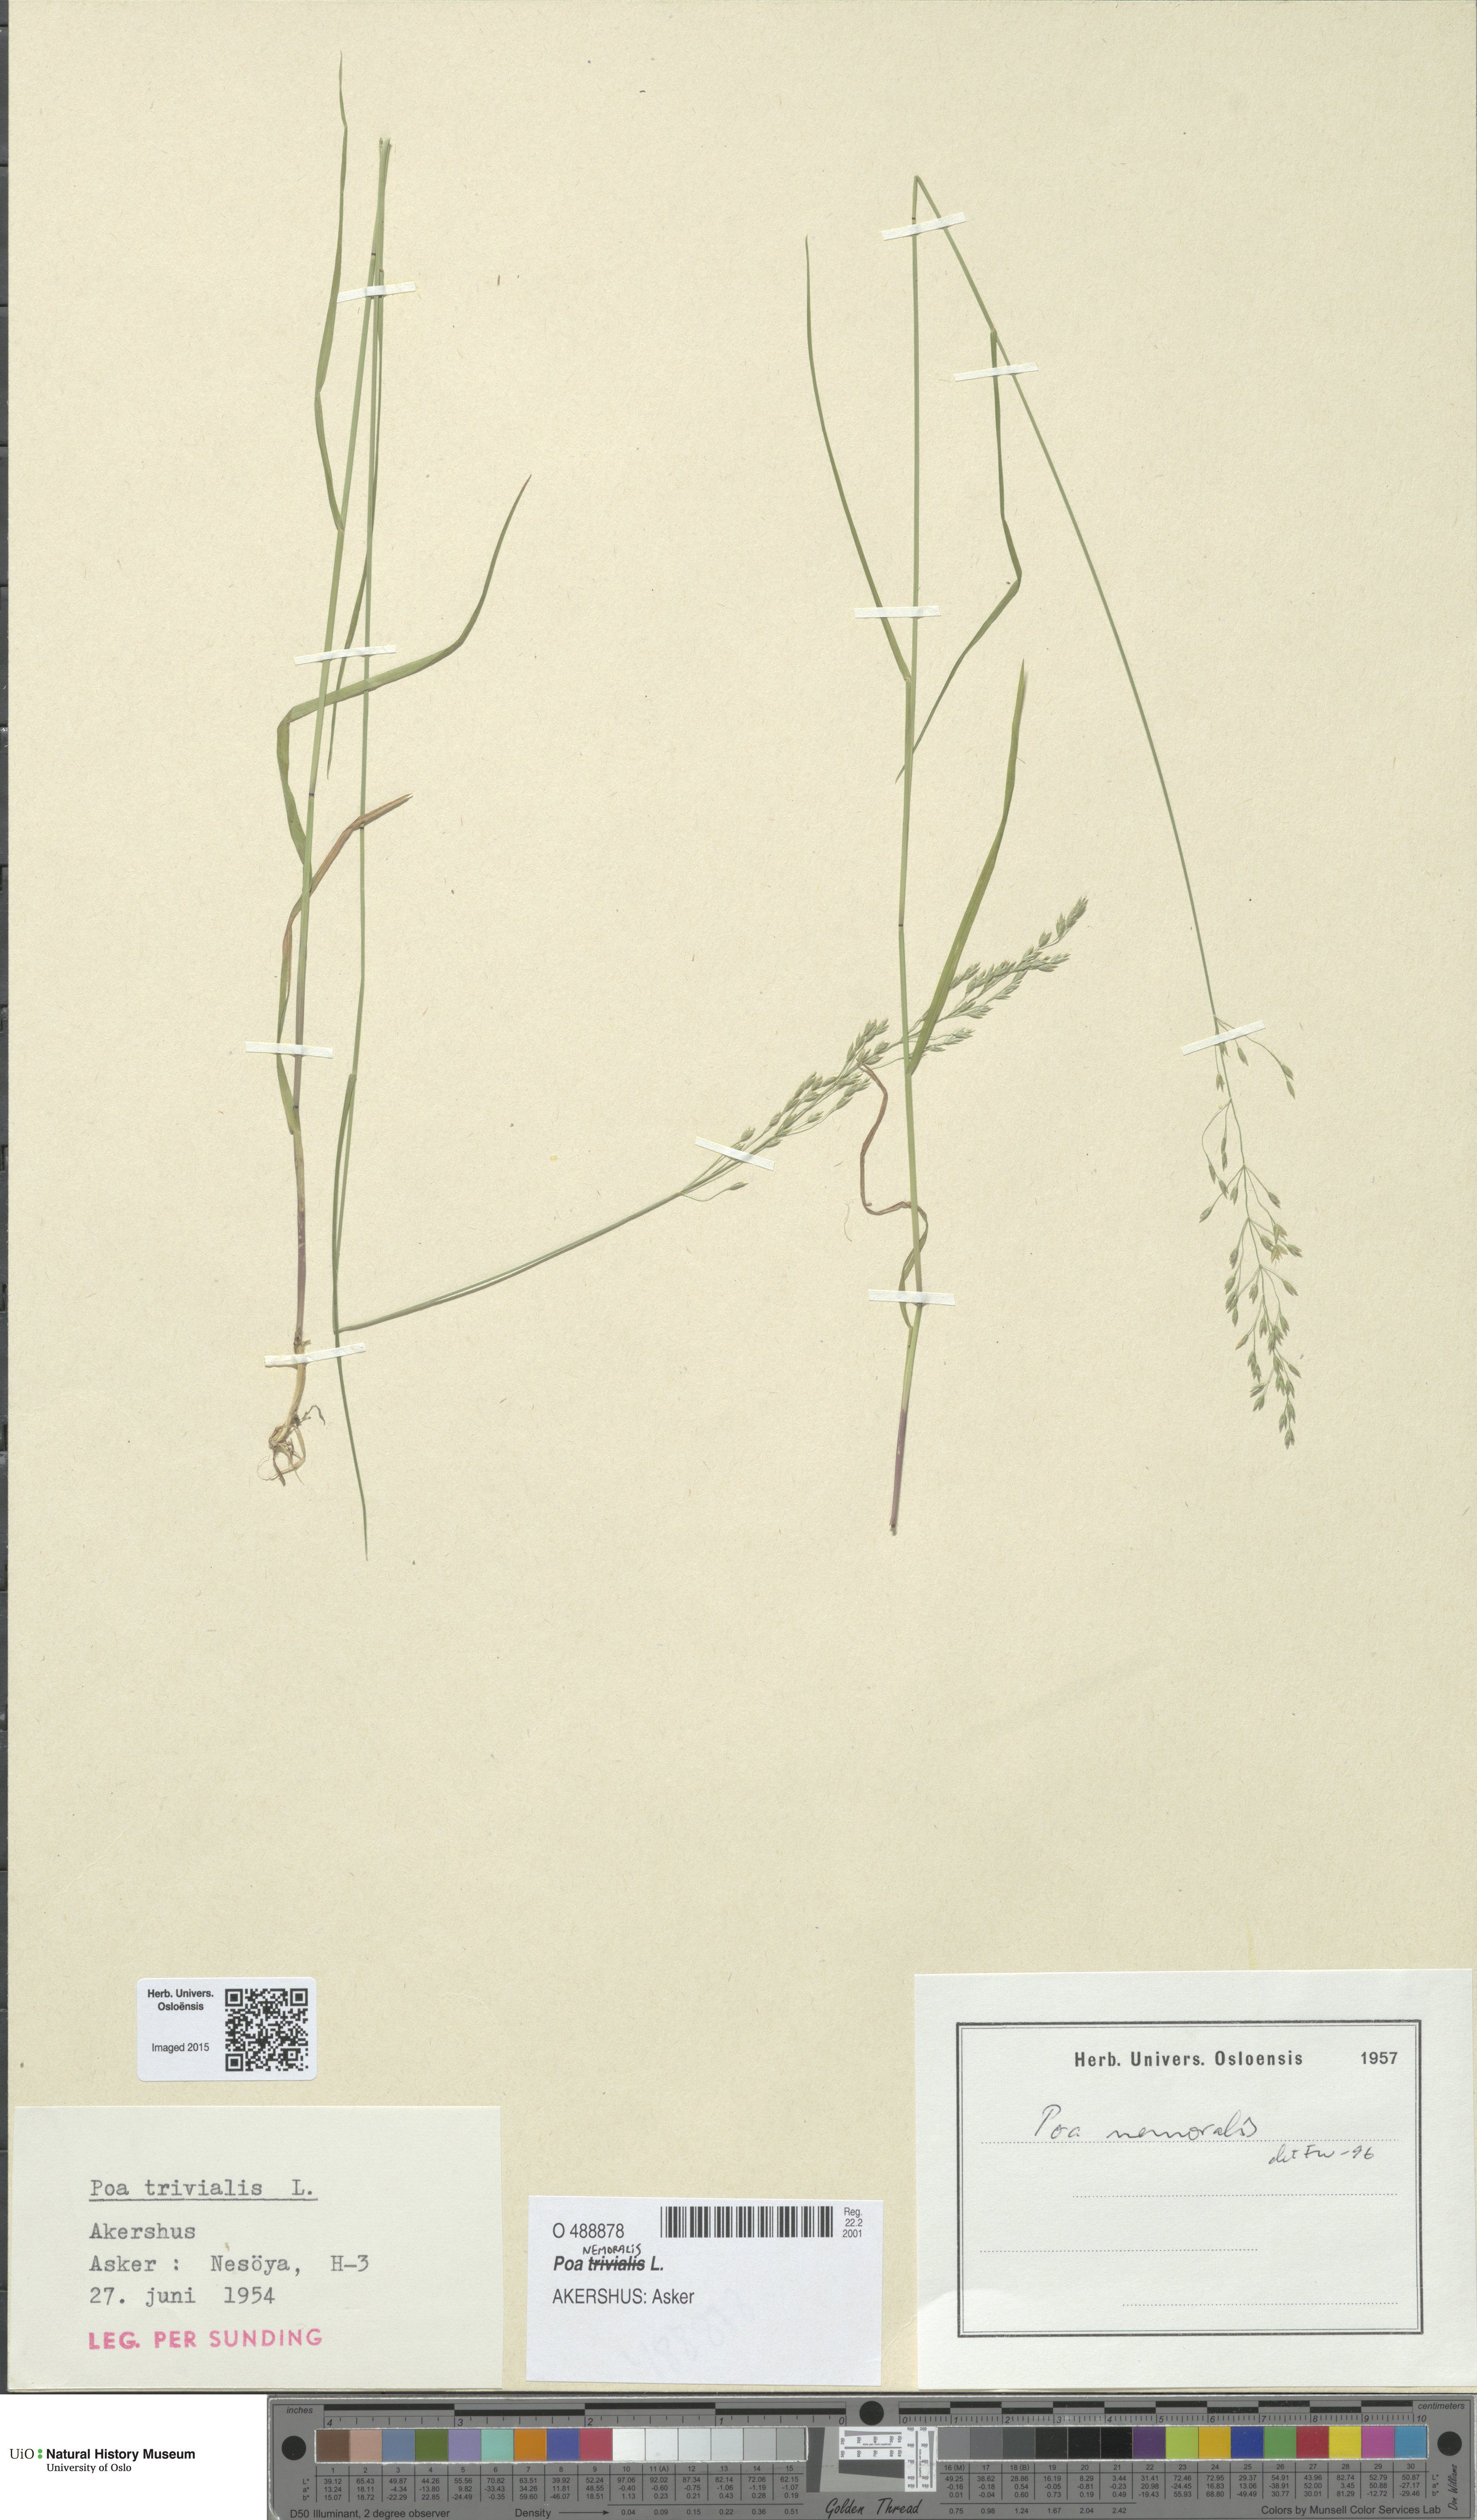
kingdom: Plantae
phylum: Tracheophyta
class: Liliopsida
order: Poales
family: Poaceae
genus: Poa
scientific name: Poa nemoralis
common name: Wood bluegrass
